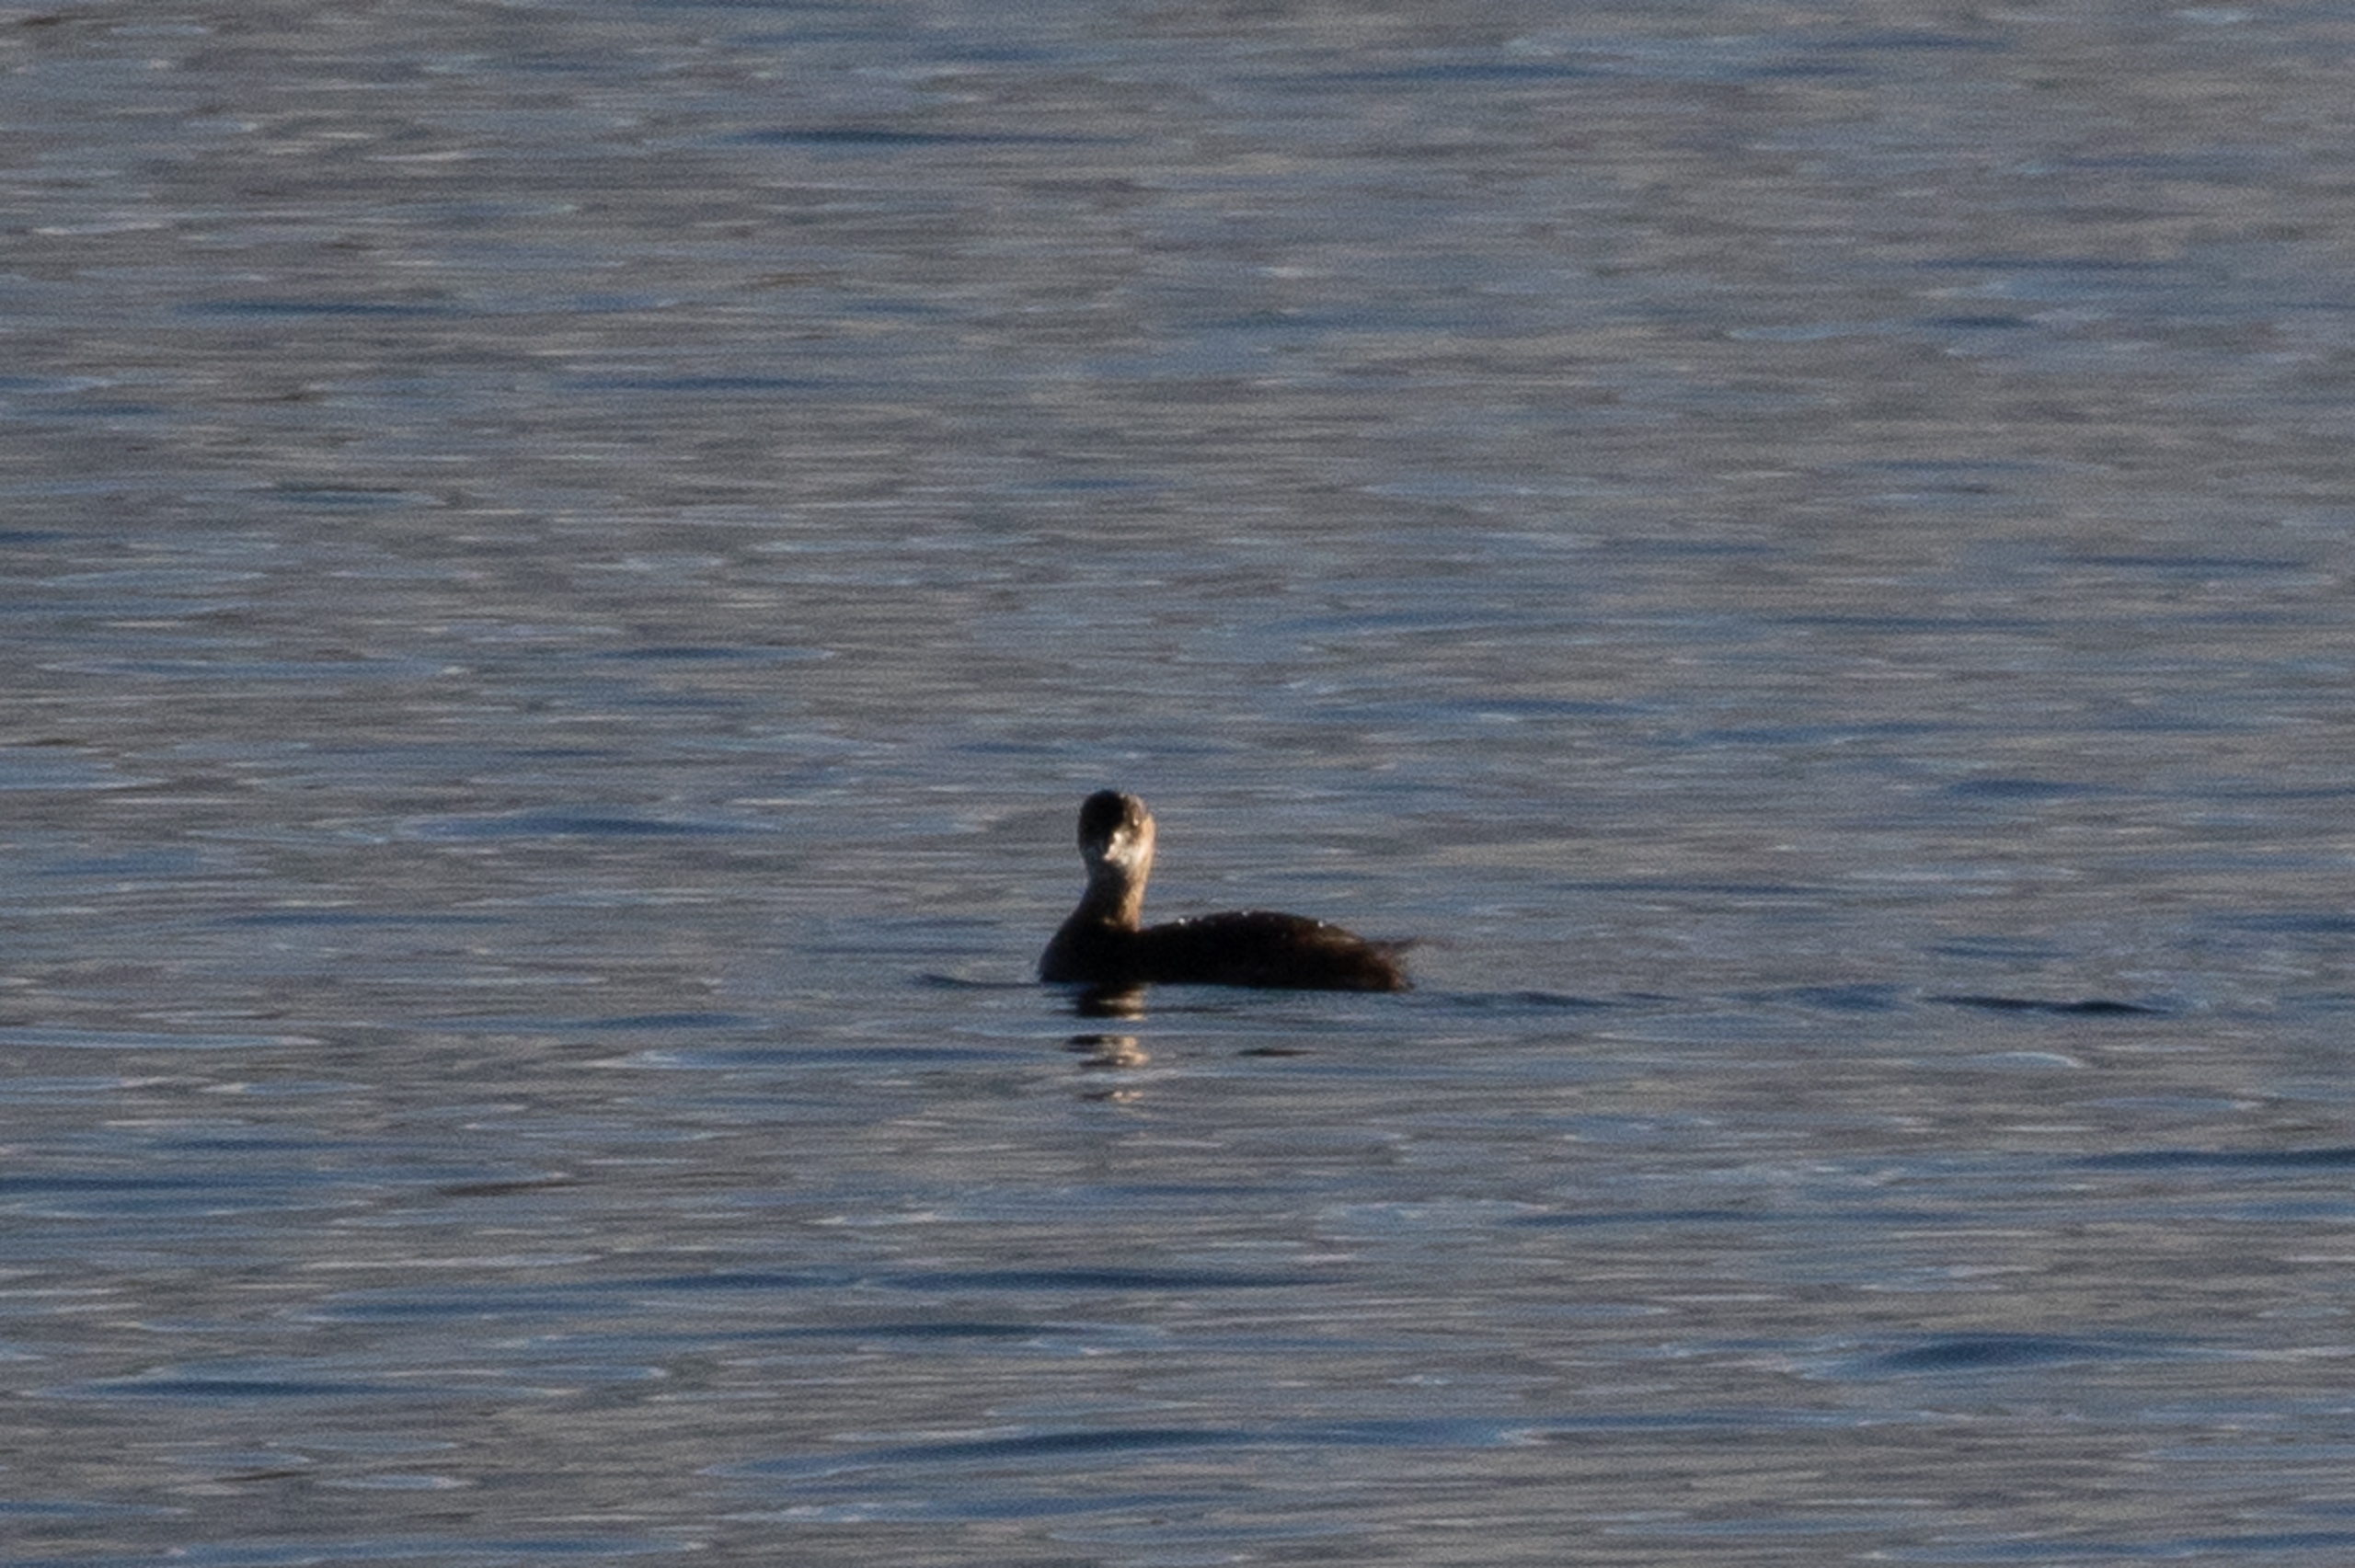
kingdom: Animalia
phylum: Chordata
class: Aves
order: Podicipediformes
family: Podicipedidae
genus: Tachybaptus
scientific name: Tachybaptus ruficollis
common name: Lille lappedykker
